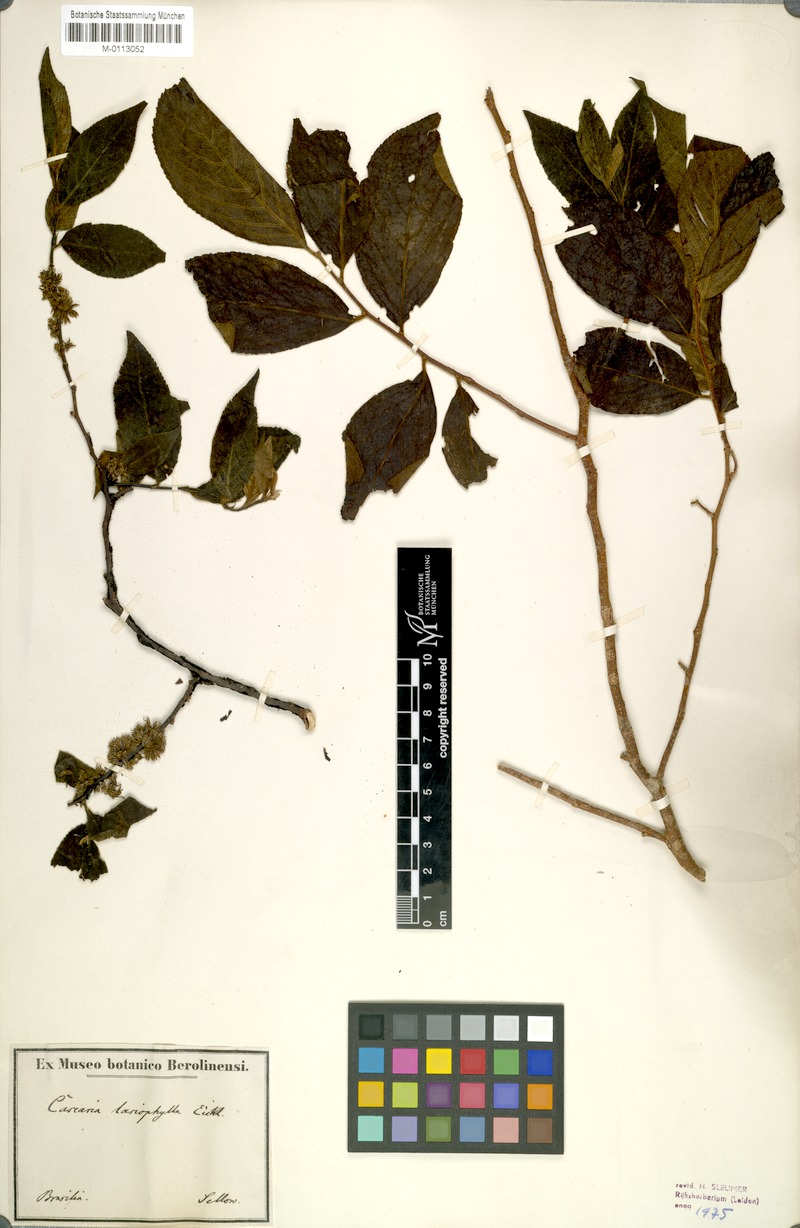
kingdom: Plantae
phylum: Tracheophyta
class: Magnoliopsida
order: Malpighiales
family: Salicaceae
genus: Casearia
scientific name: Casearia lasiophylla
